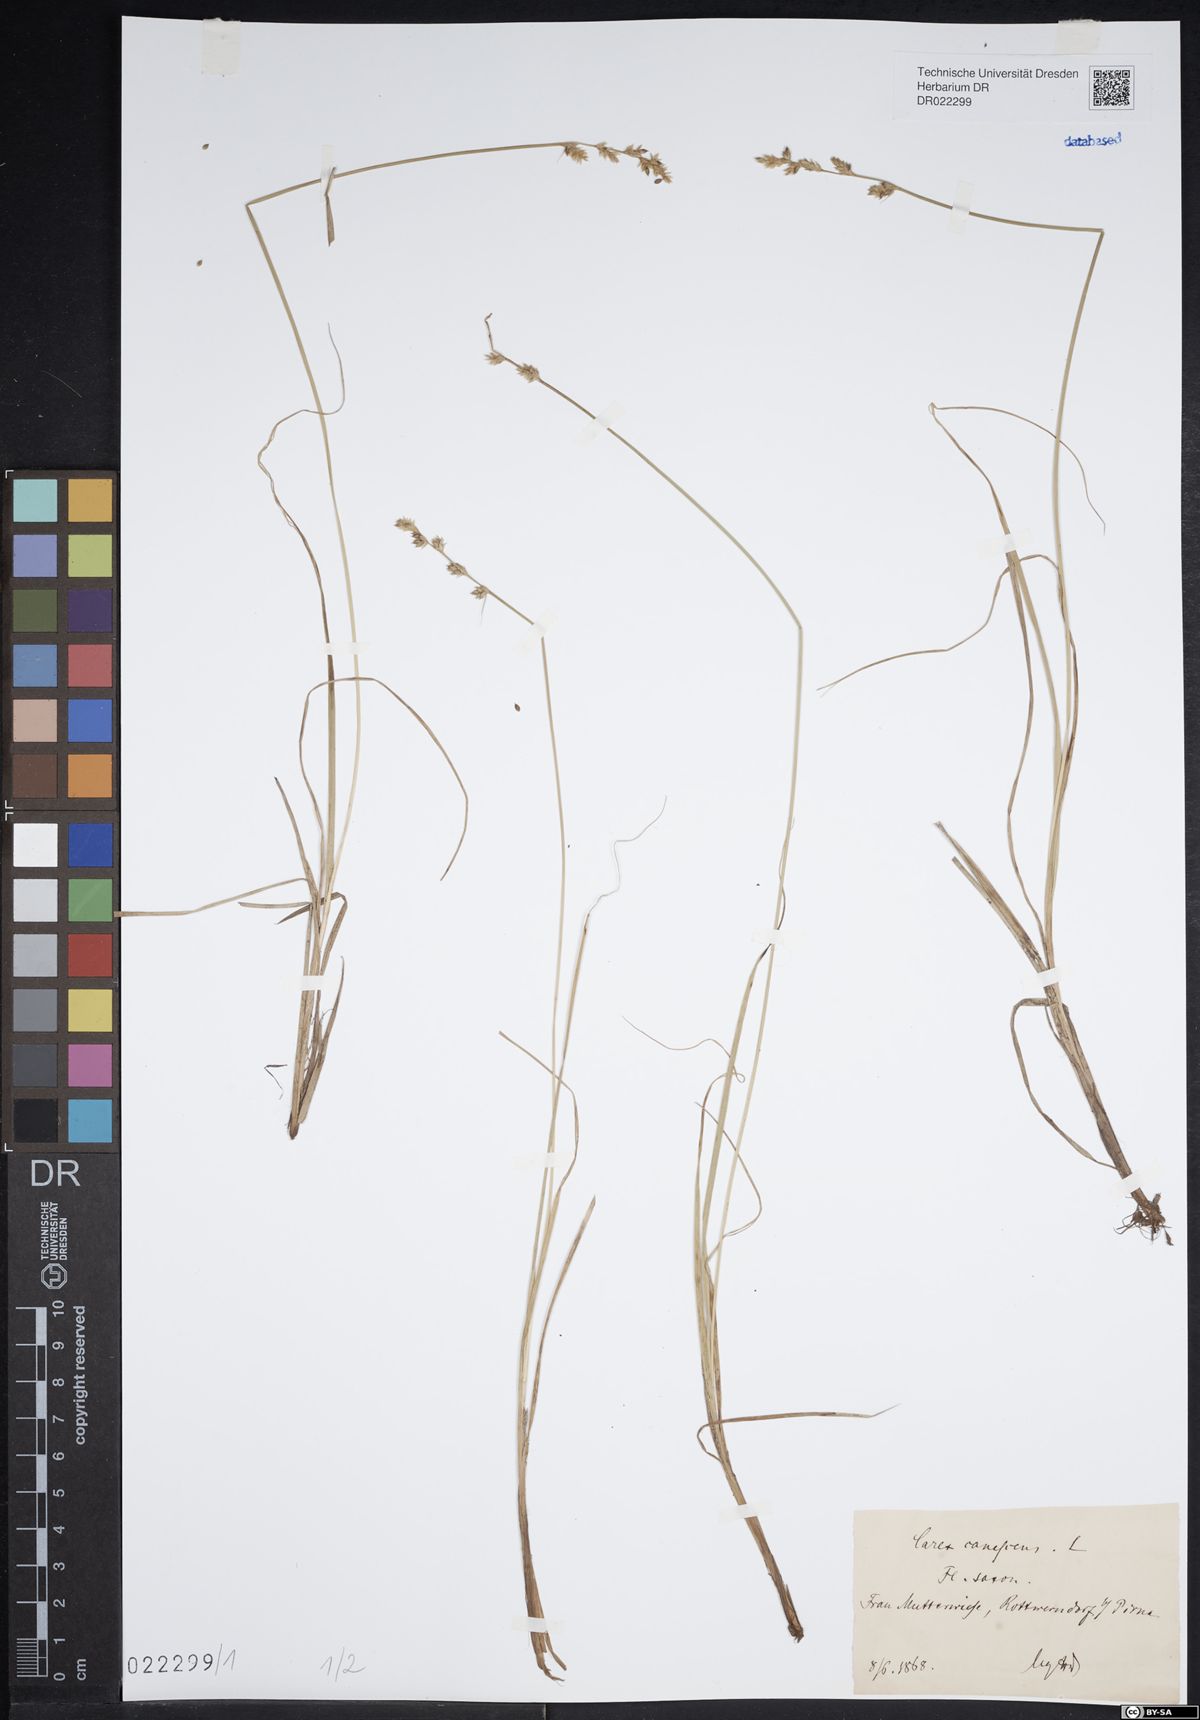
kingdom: Plantae
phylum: Tracheophyta
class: Liliopsida
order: Poales
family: Cyperaceae
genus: Carex
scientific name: Carex canescens
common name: White sedge
